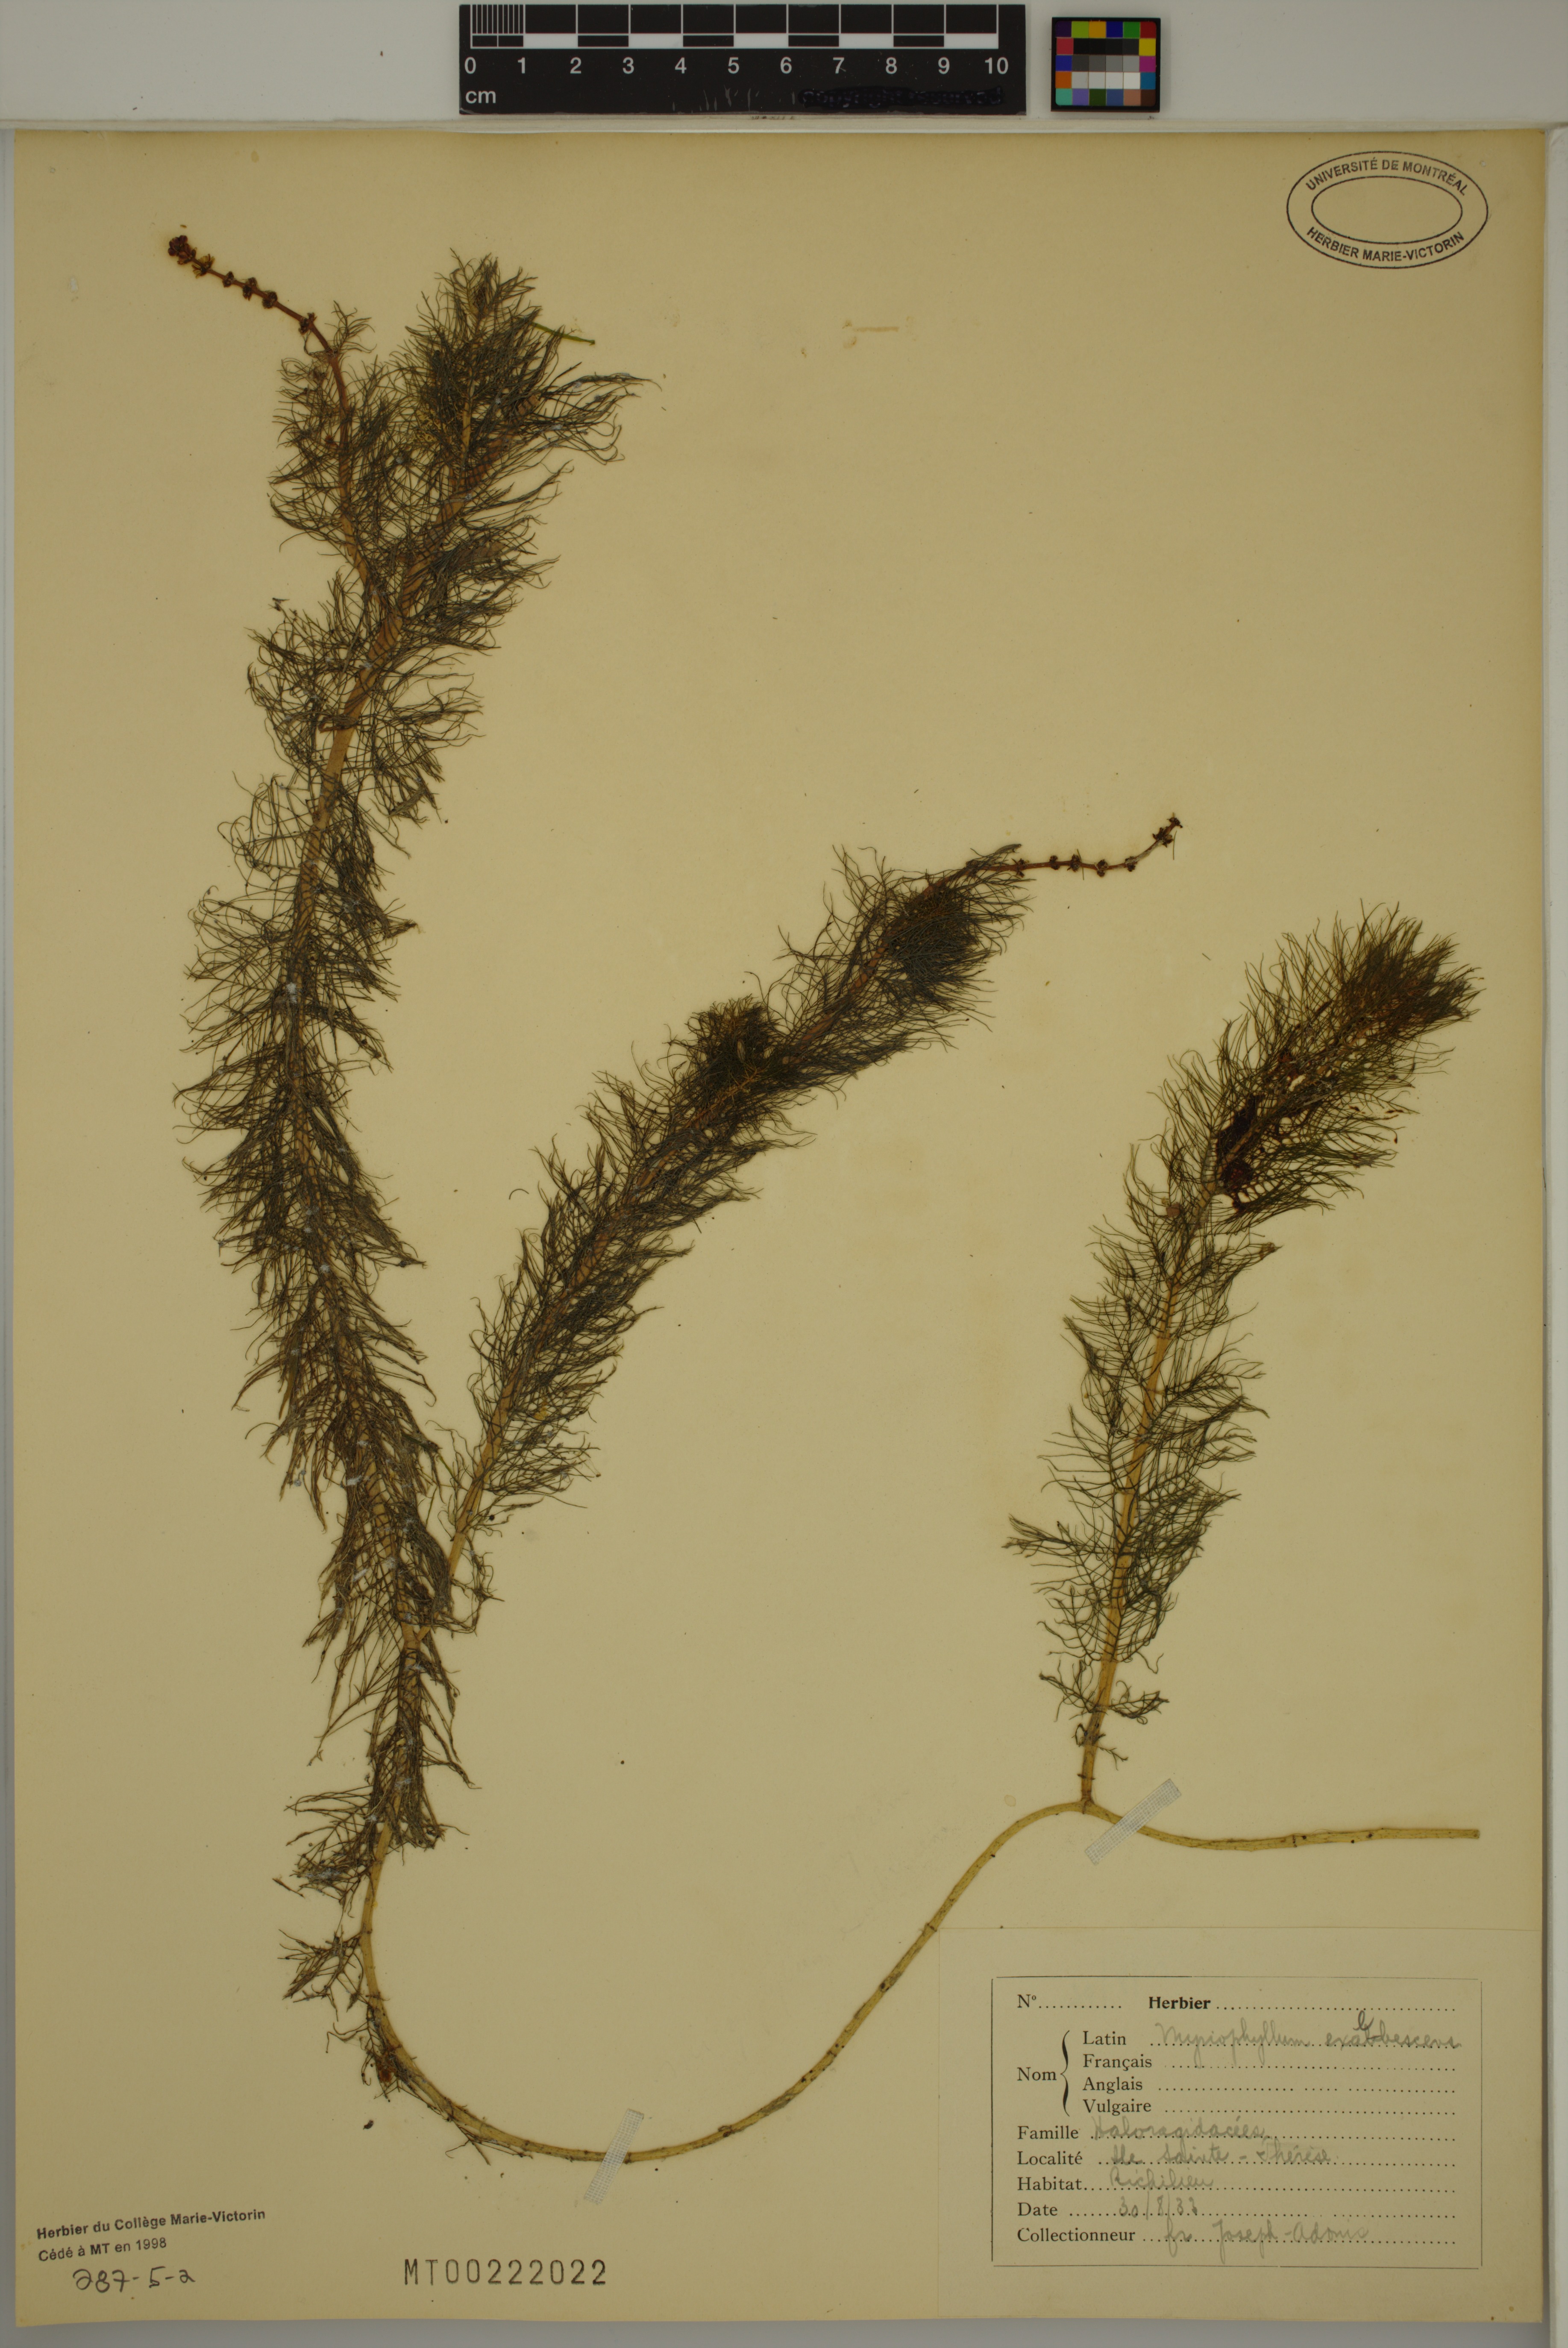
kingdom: Plantae
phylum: Tracheophyta
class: Magnoliopsida
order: Saxifragales
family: Haloragaceae
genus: Myriophyllum
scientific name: Myriophyllum sibiricum
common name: Siberian water-milfoil
